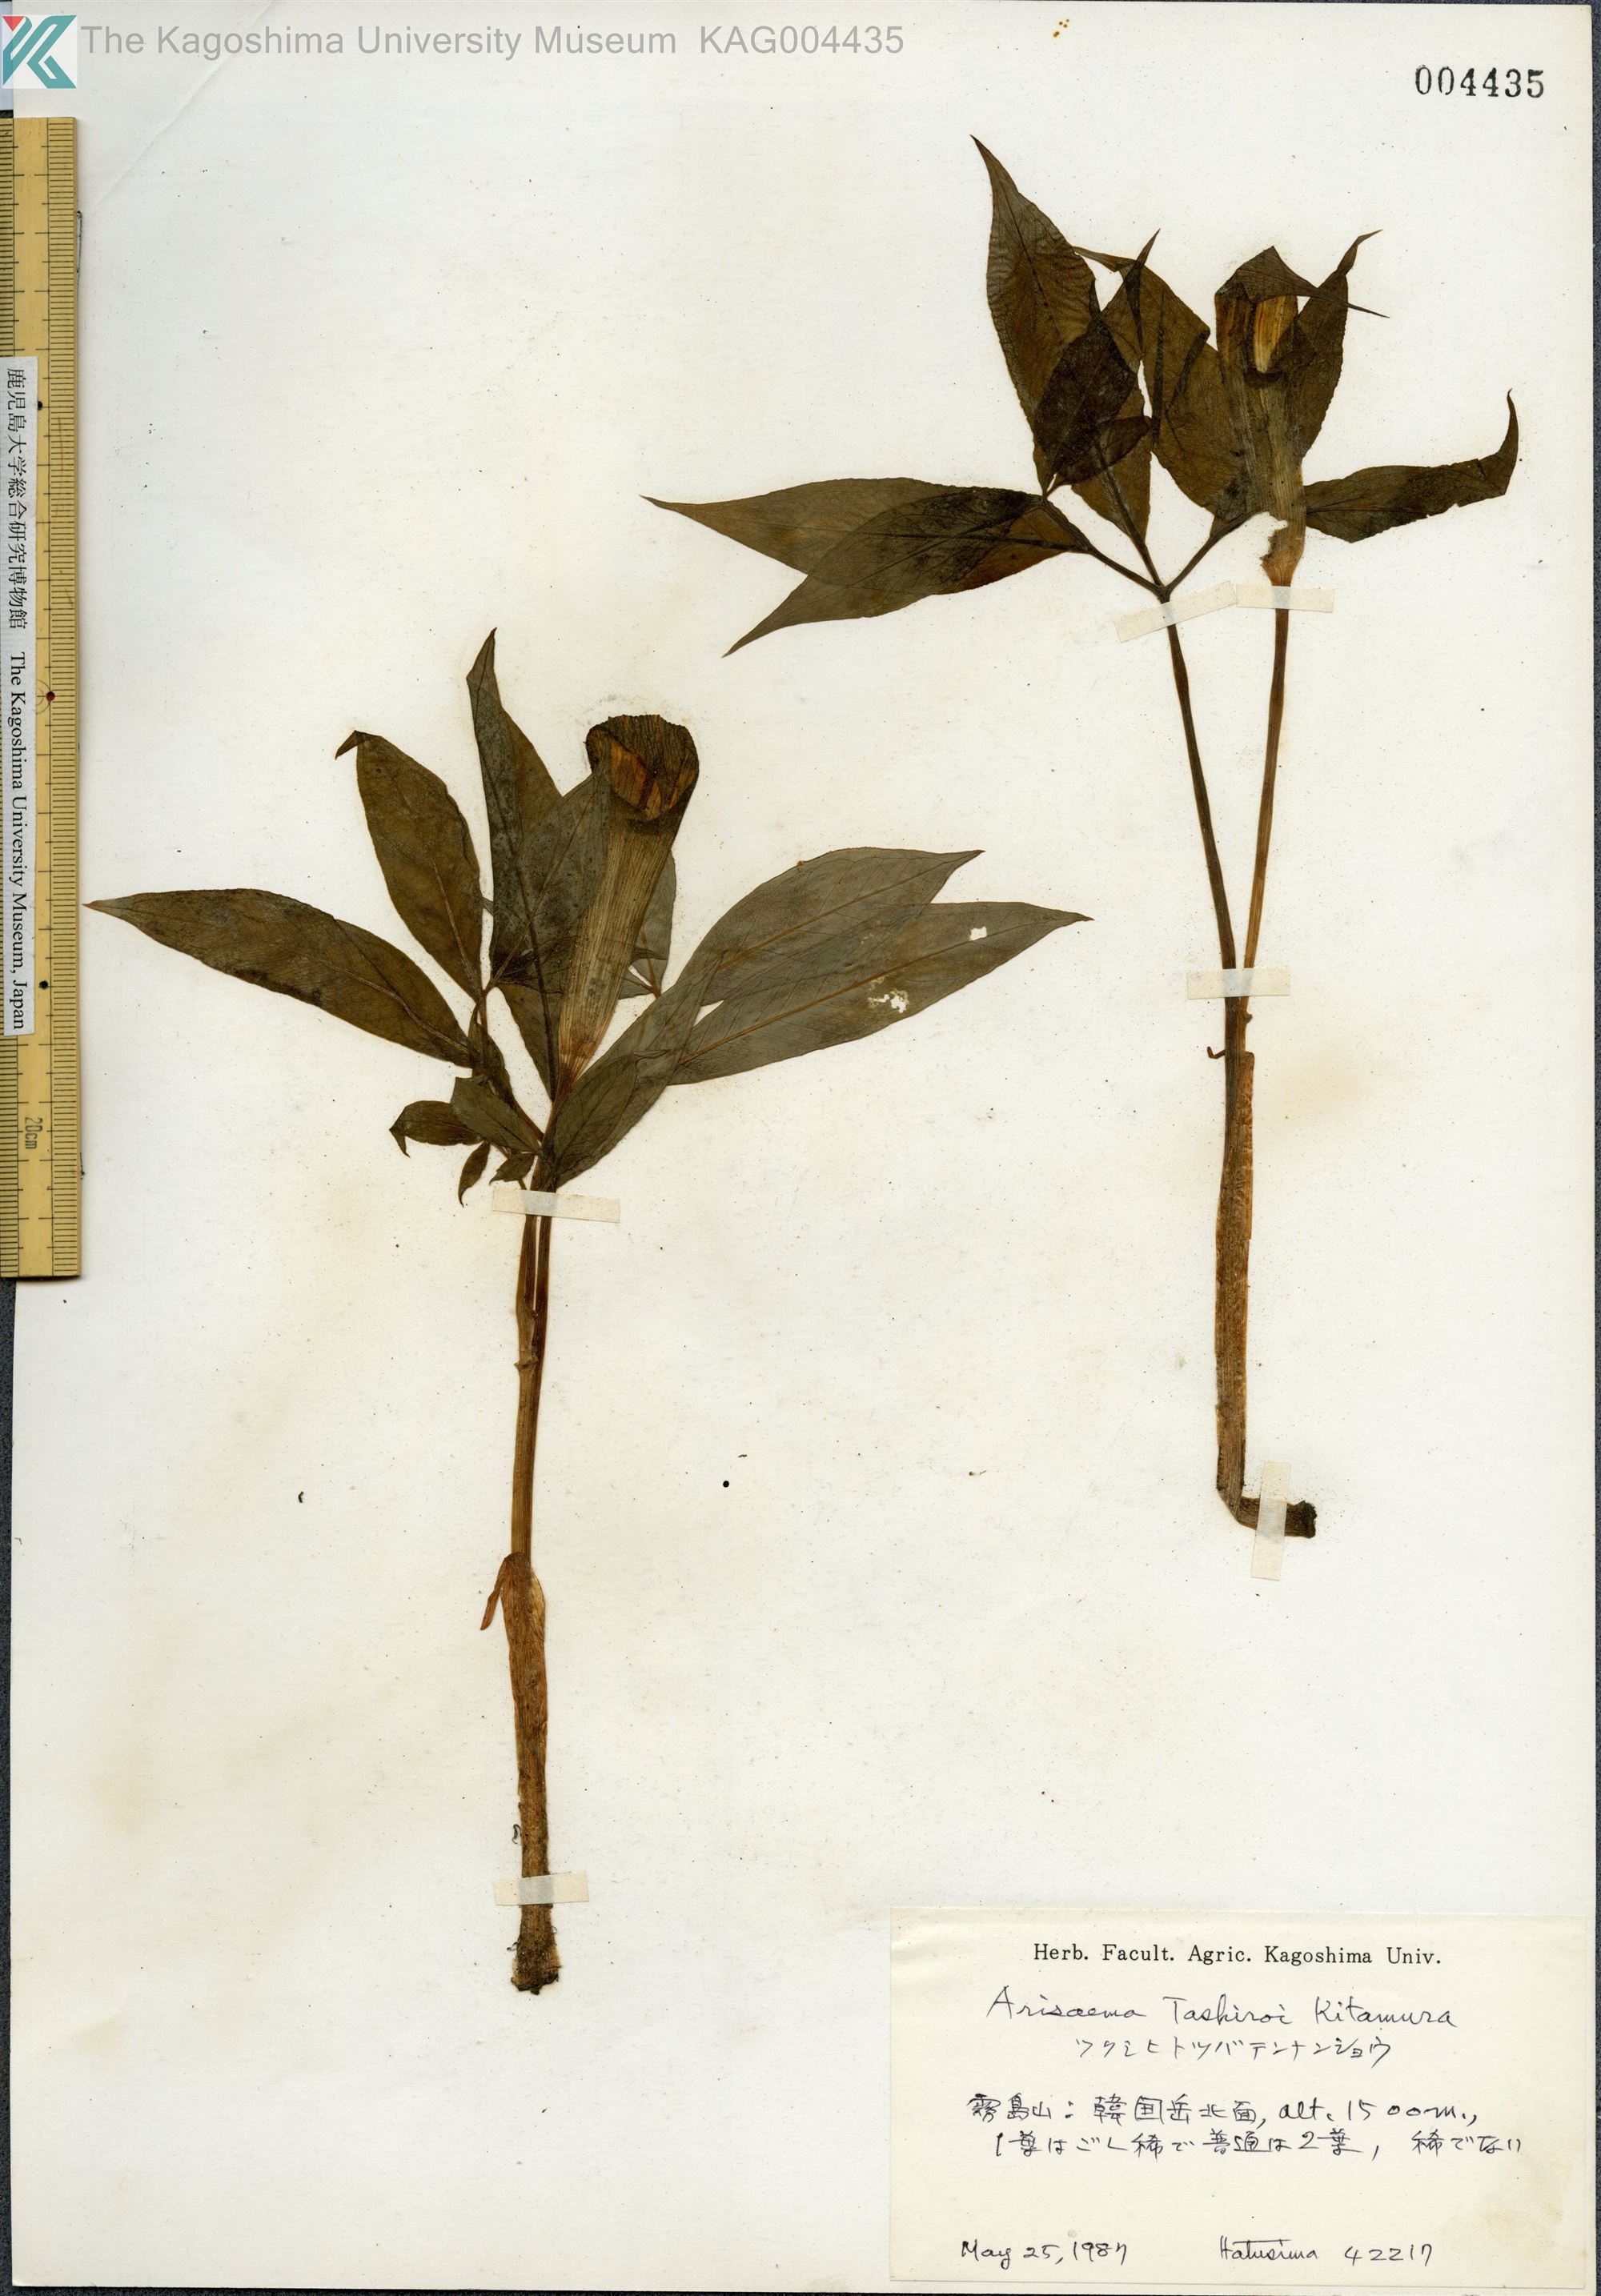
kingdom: Plantae
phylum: Tracheophyta
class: Liliopsida
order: Alismatales
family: Araceae
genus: Arisaema
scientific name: Arisaema tashiroi
